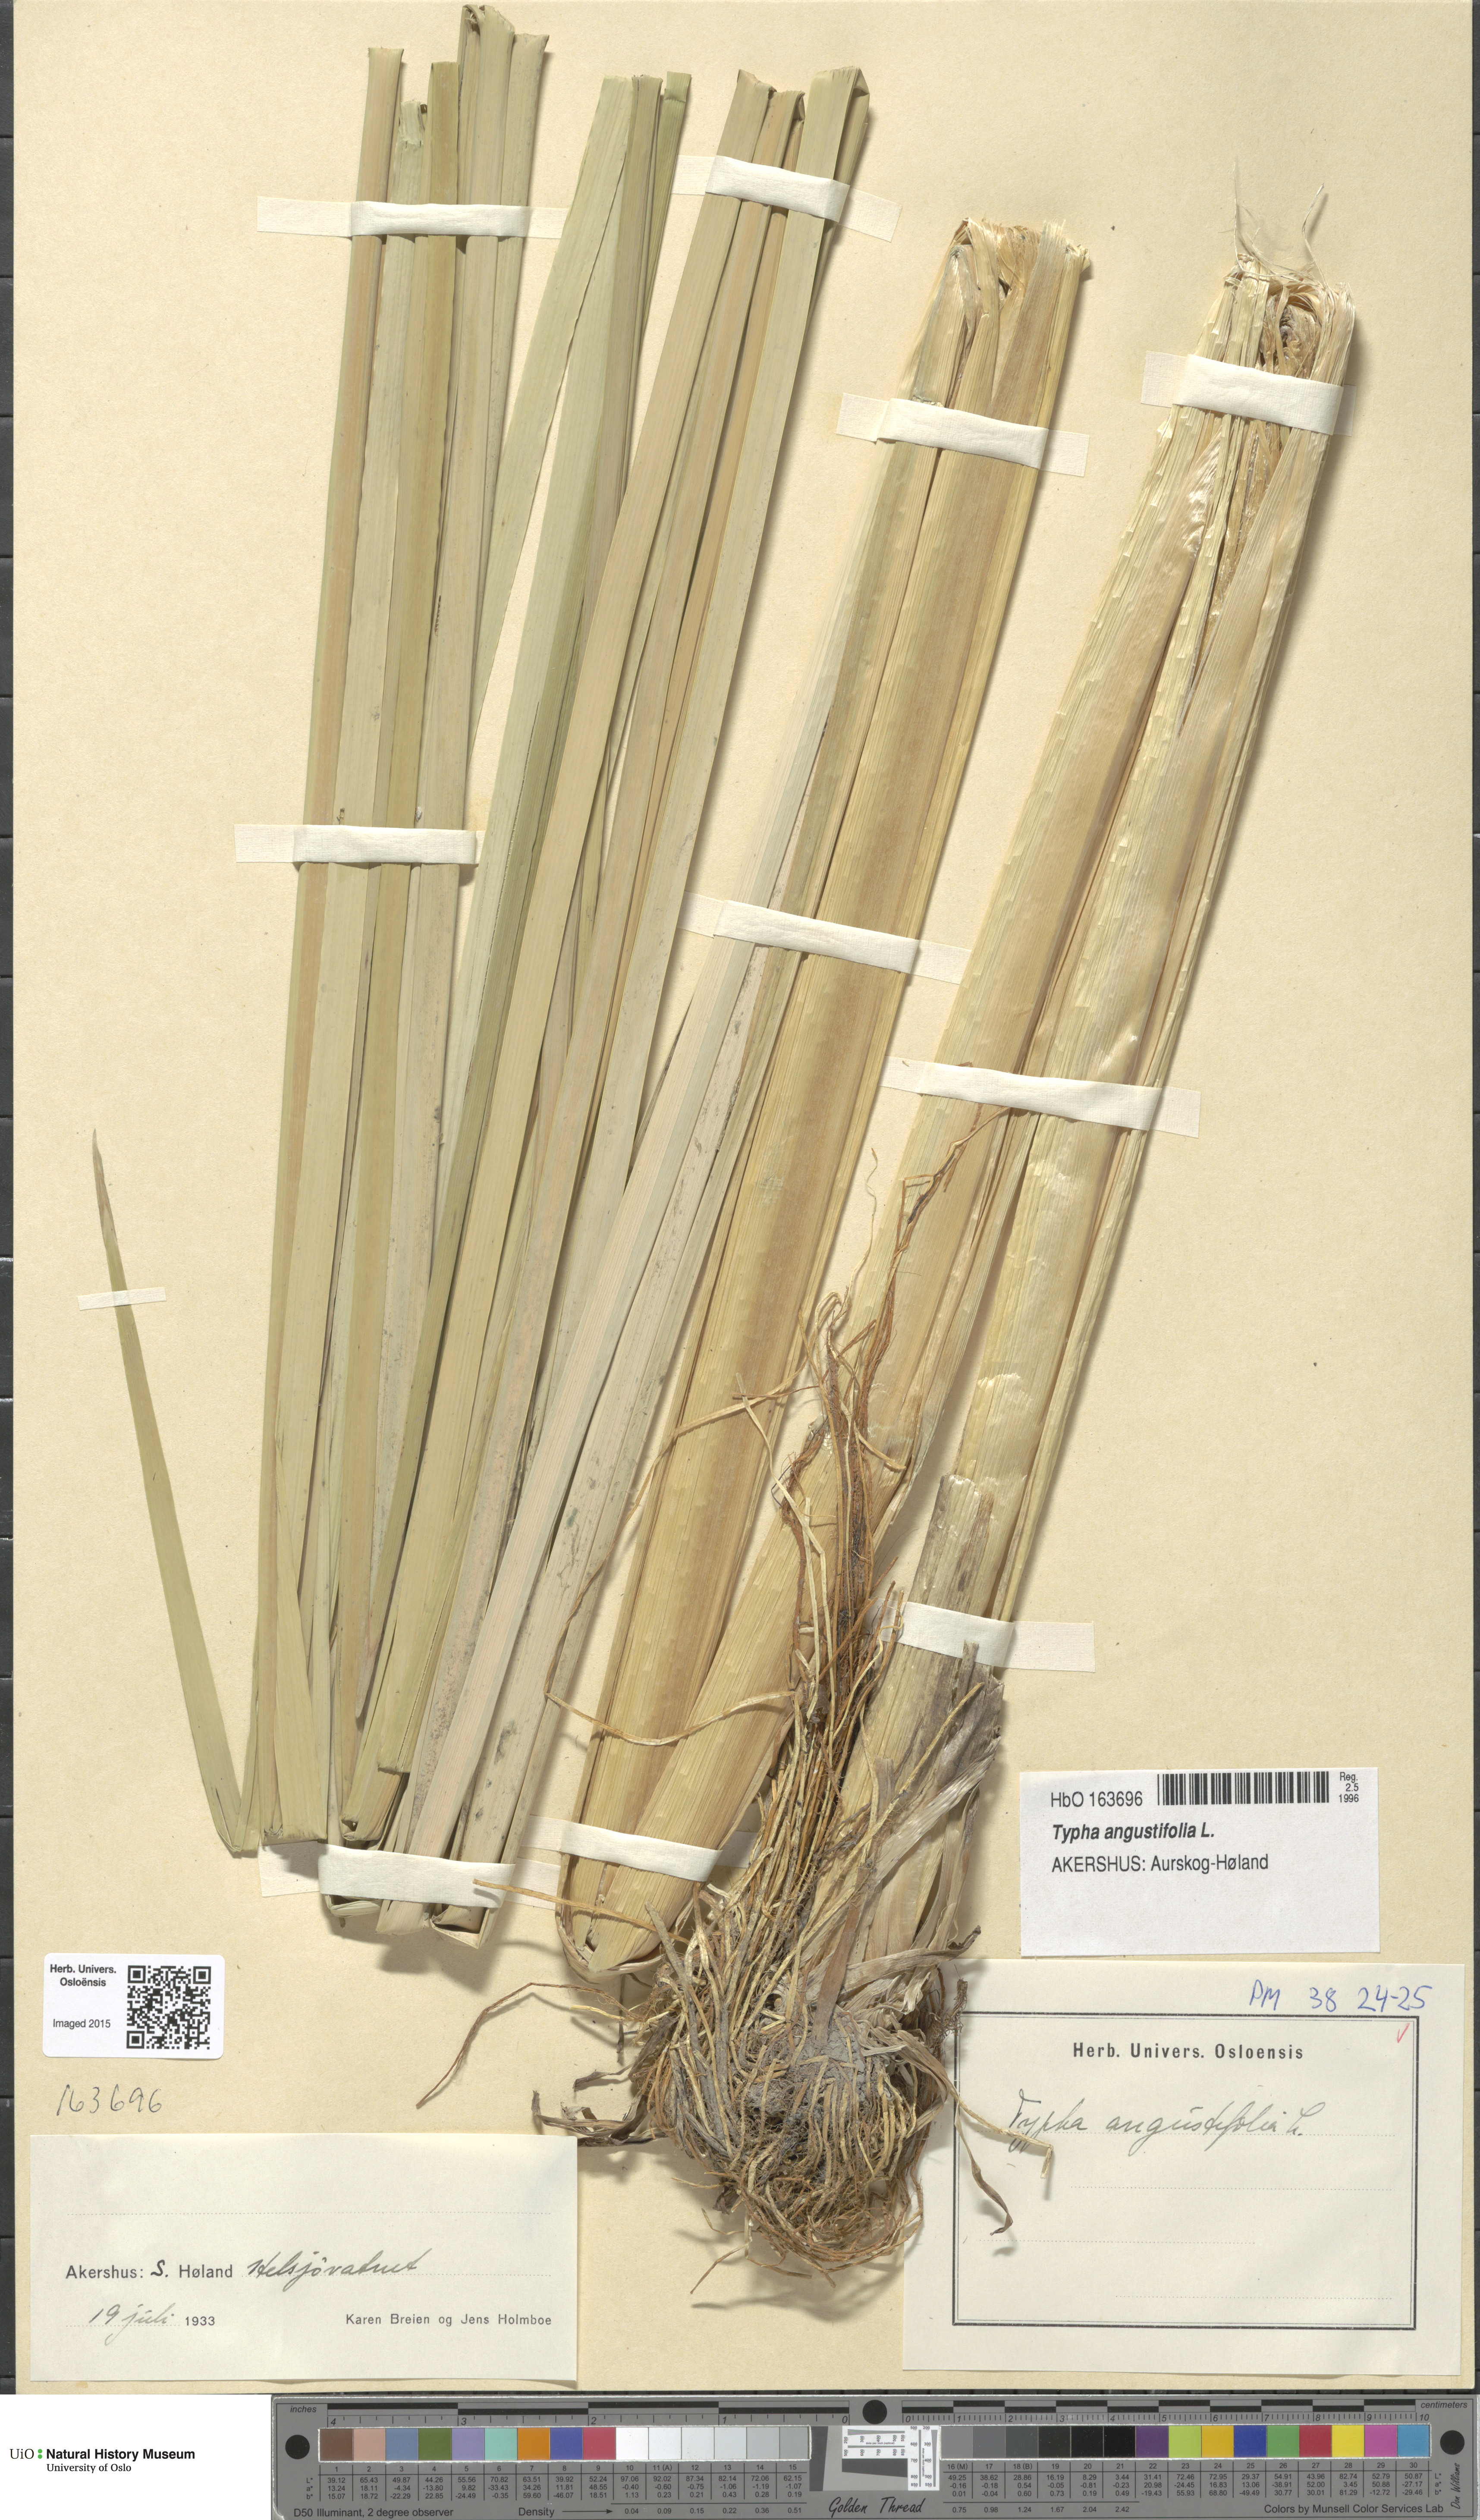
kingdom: Plantae
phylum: Tracheophyta
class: Liliopsida
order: Poales
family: Typhaceae
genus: Typha
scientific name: Typha angustifolia
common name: Lesser bulrush
